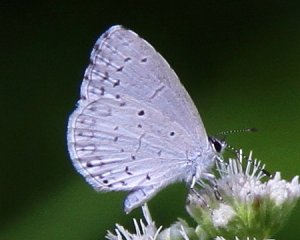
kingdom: Animalia
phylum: Arthropoda
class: Insecta
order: Lepidoptera
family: Lycaenidae
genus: Cyaniris
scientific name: Cyaniris neglecta
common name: Summer Azure
